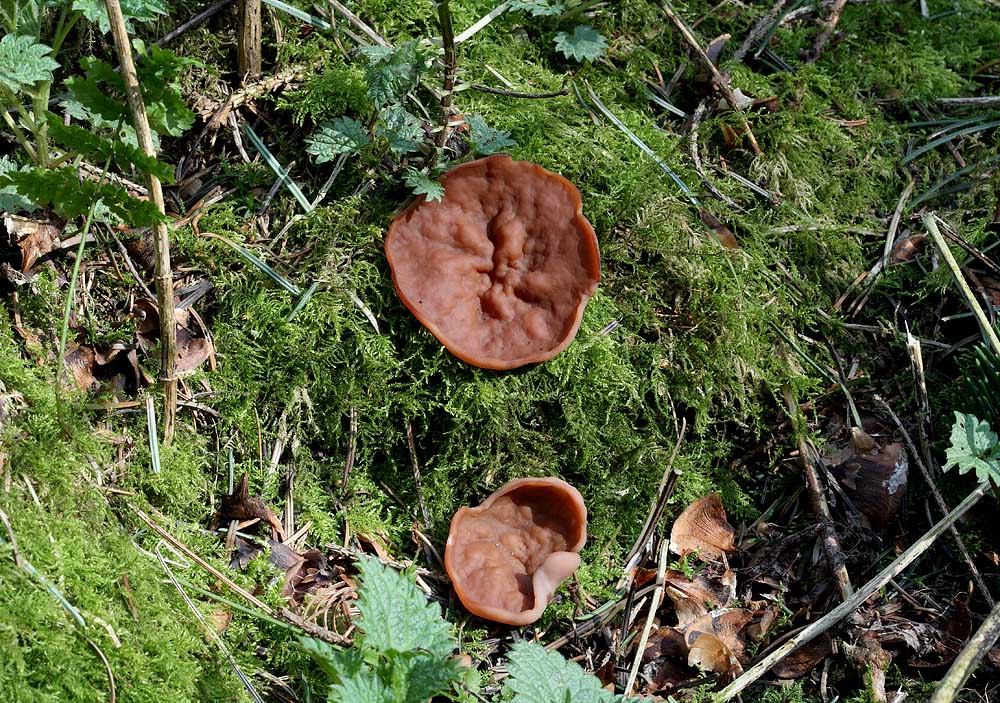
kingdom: Fungi
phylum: Ascomycota
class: Pezizomycetes
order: Pezizales
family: Discinaceae
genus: Discina
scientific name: Discina ancilis
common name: udbredt stenmorkel
